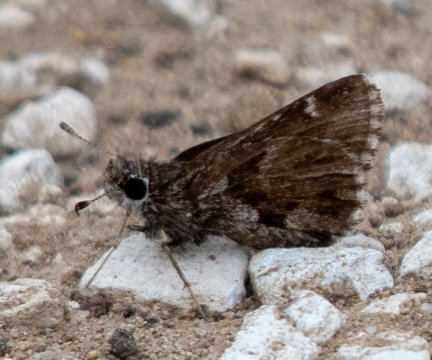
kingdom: Animalia
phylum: Arthropoda
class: Insecta
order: Lepidoptera
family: Hesperiidae
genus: Mastor
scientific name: Mastor nysa
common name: Nysa Roadside-Skipper
